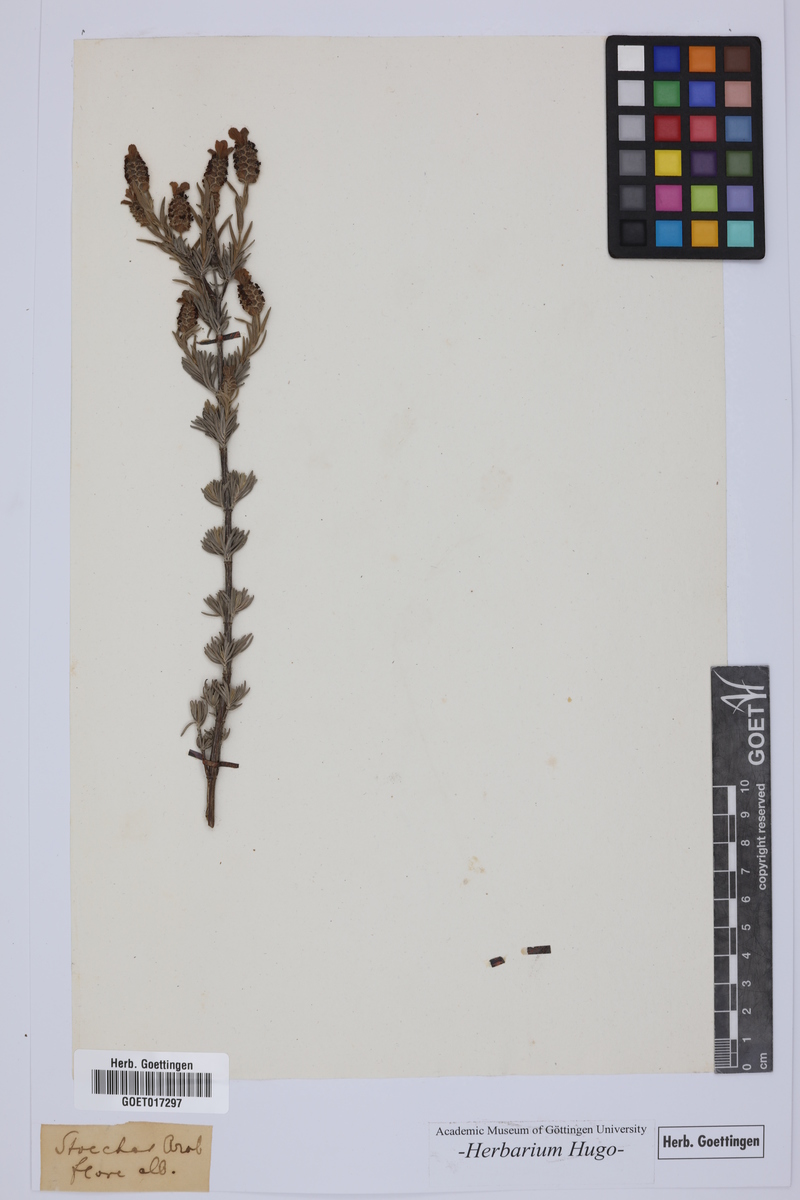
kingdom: Plantae
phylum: Tracheophyta
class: Magnoliopsida
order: Asterales
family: Asteraceae
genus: Stoechas
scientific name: Stoechas
